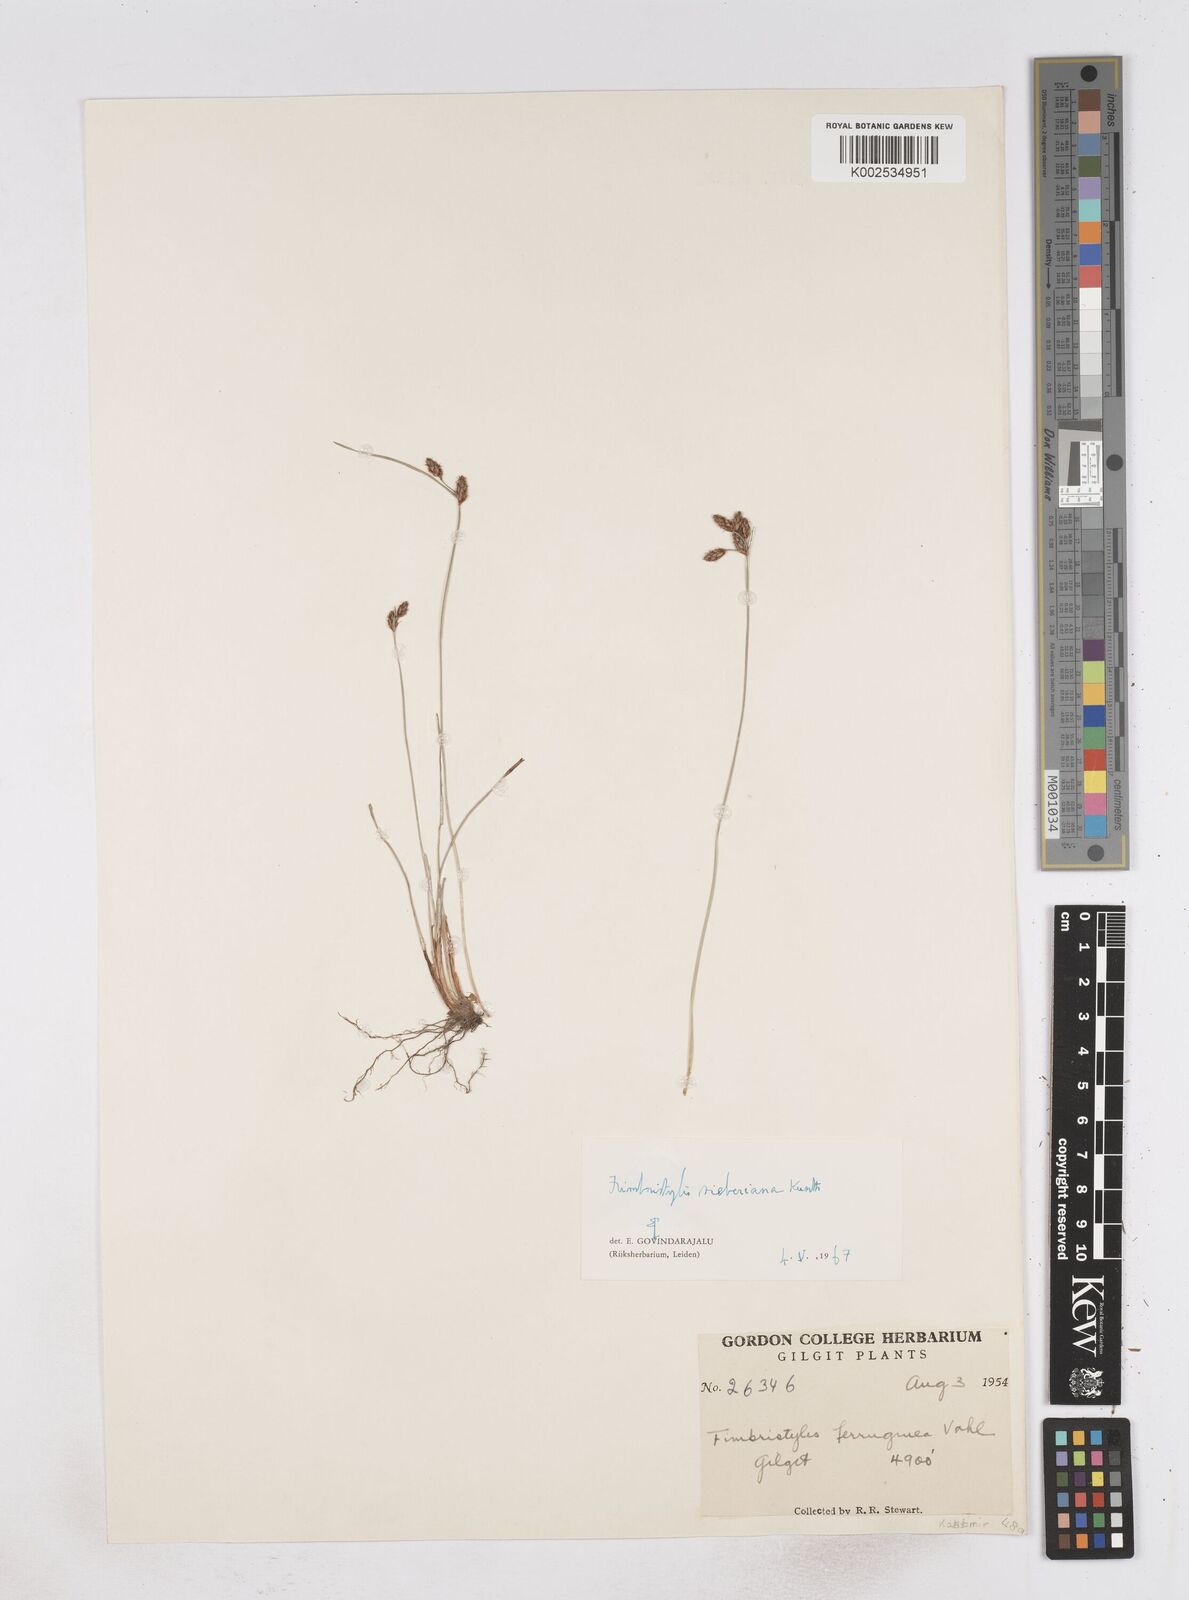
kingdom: Plantae
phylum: Tracheophyta
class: Liliopsida
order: Poales
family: Cyperaceae
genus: Fimbristylis
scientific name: Fimbristylis ferruginea
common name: West indian fimbry
